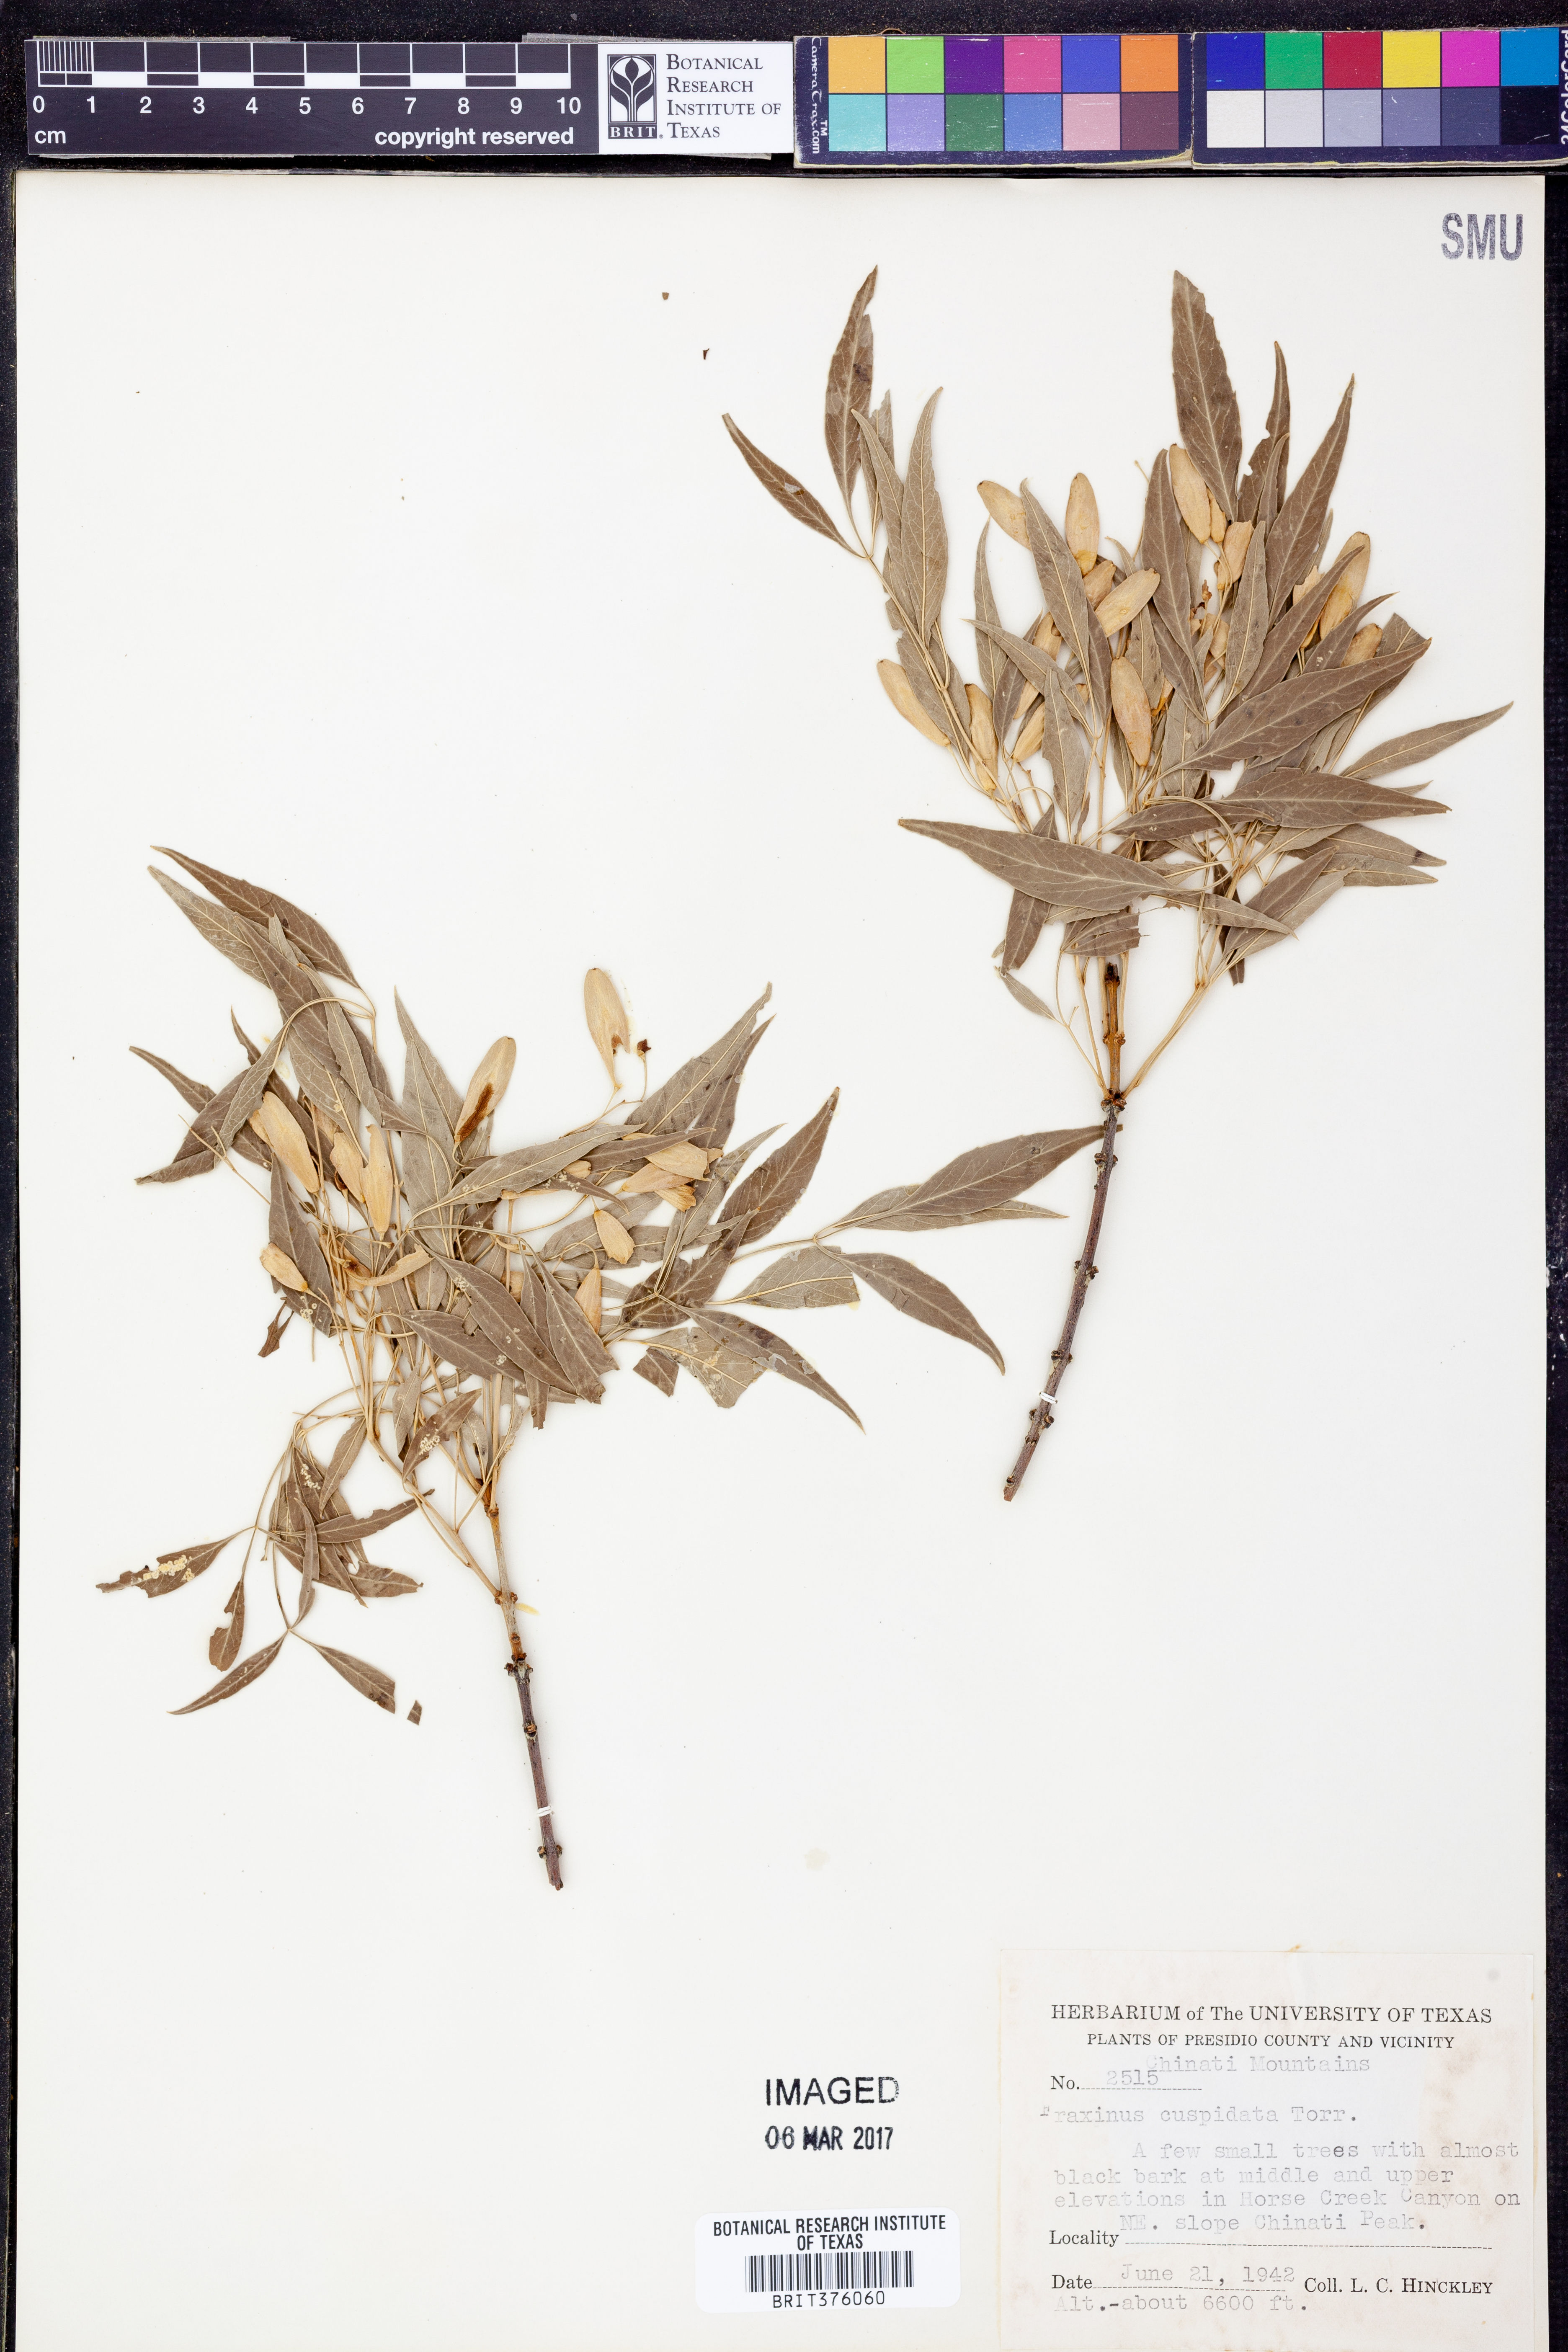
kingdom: Plantae
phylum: Tracheophyta
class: Magnoliopsida
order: Lamiales
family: Oleaceae
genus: Fraxinus
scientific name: Fraxinus cuspidata
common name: Fragrant ash
